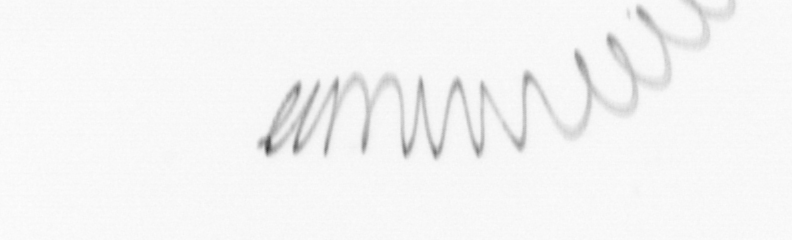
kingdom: Chromista
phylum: Ochrophyta
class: Bacillariophyceae
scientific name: Bacillariophyceae
